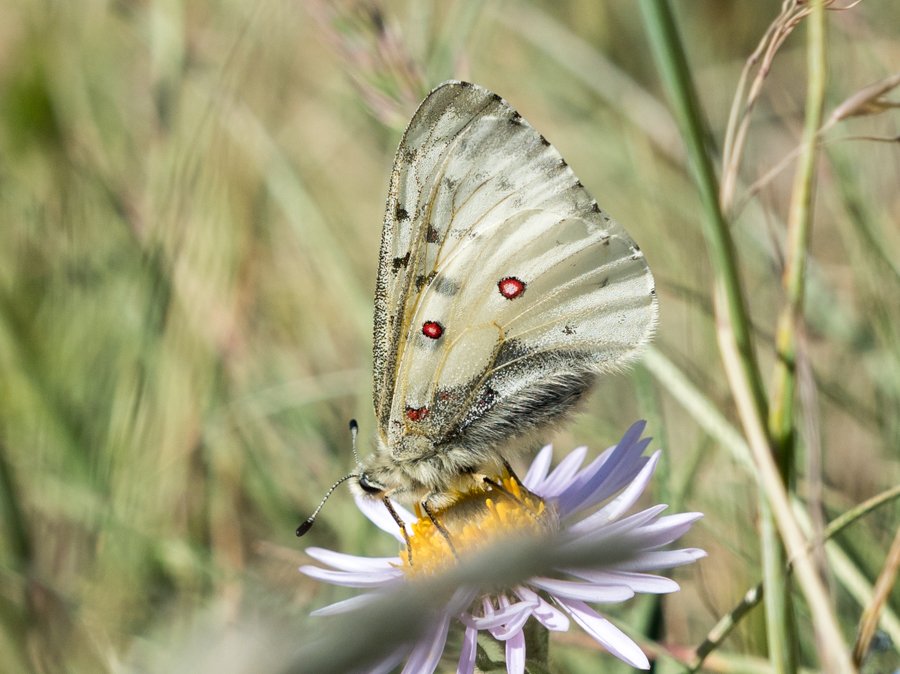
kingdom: Animalia
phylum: Arthropoda
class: Insecta
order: Lepidoptera
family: Papilionidae
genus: Parnassius
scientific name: Parnassius smintheus
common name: Rocky Mountain Parnassian
